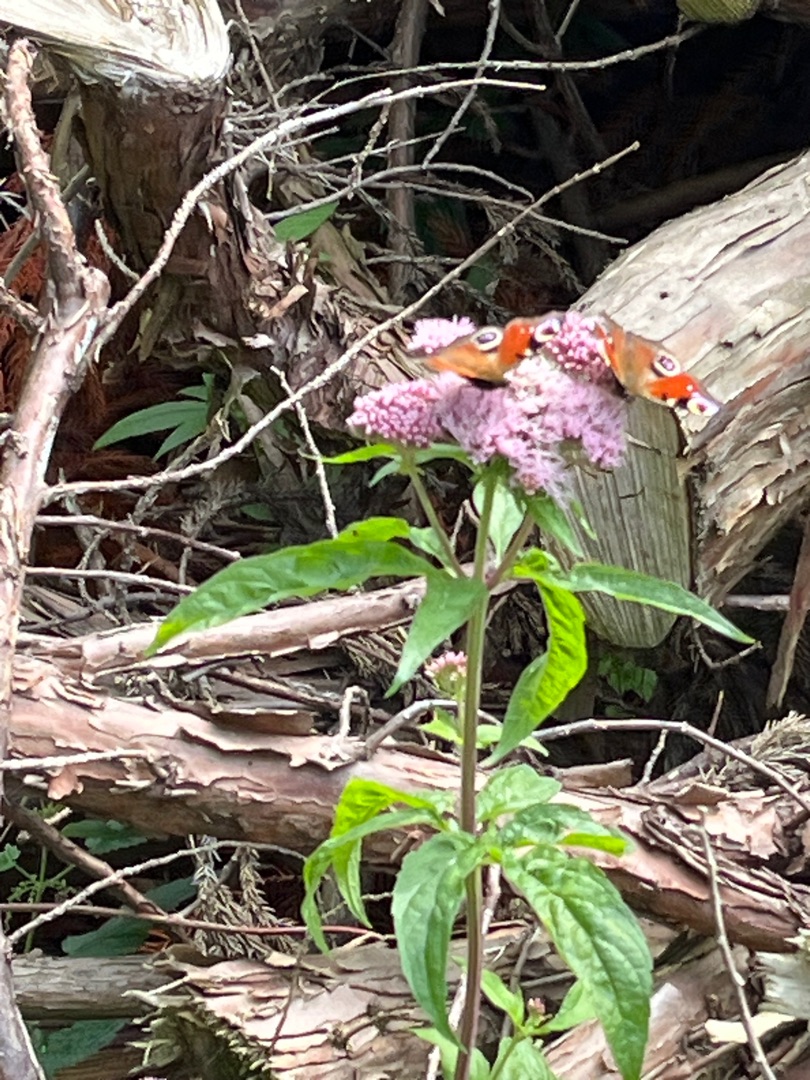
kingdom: Animalia
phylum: Arthropoda
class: Insecta
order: Lepidoptera
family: Nymphalidae
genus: Aglais
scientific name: Aglais io
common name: Dagpåfugleøje
